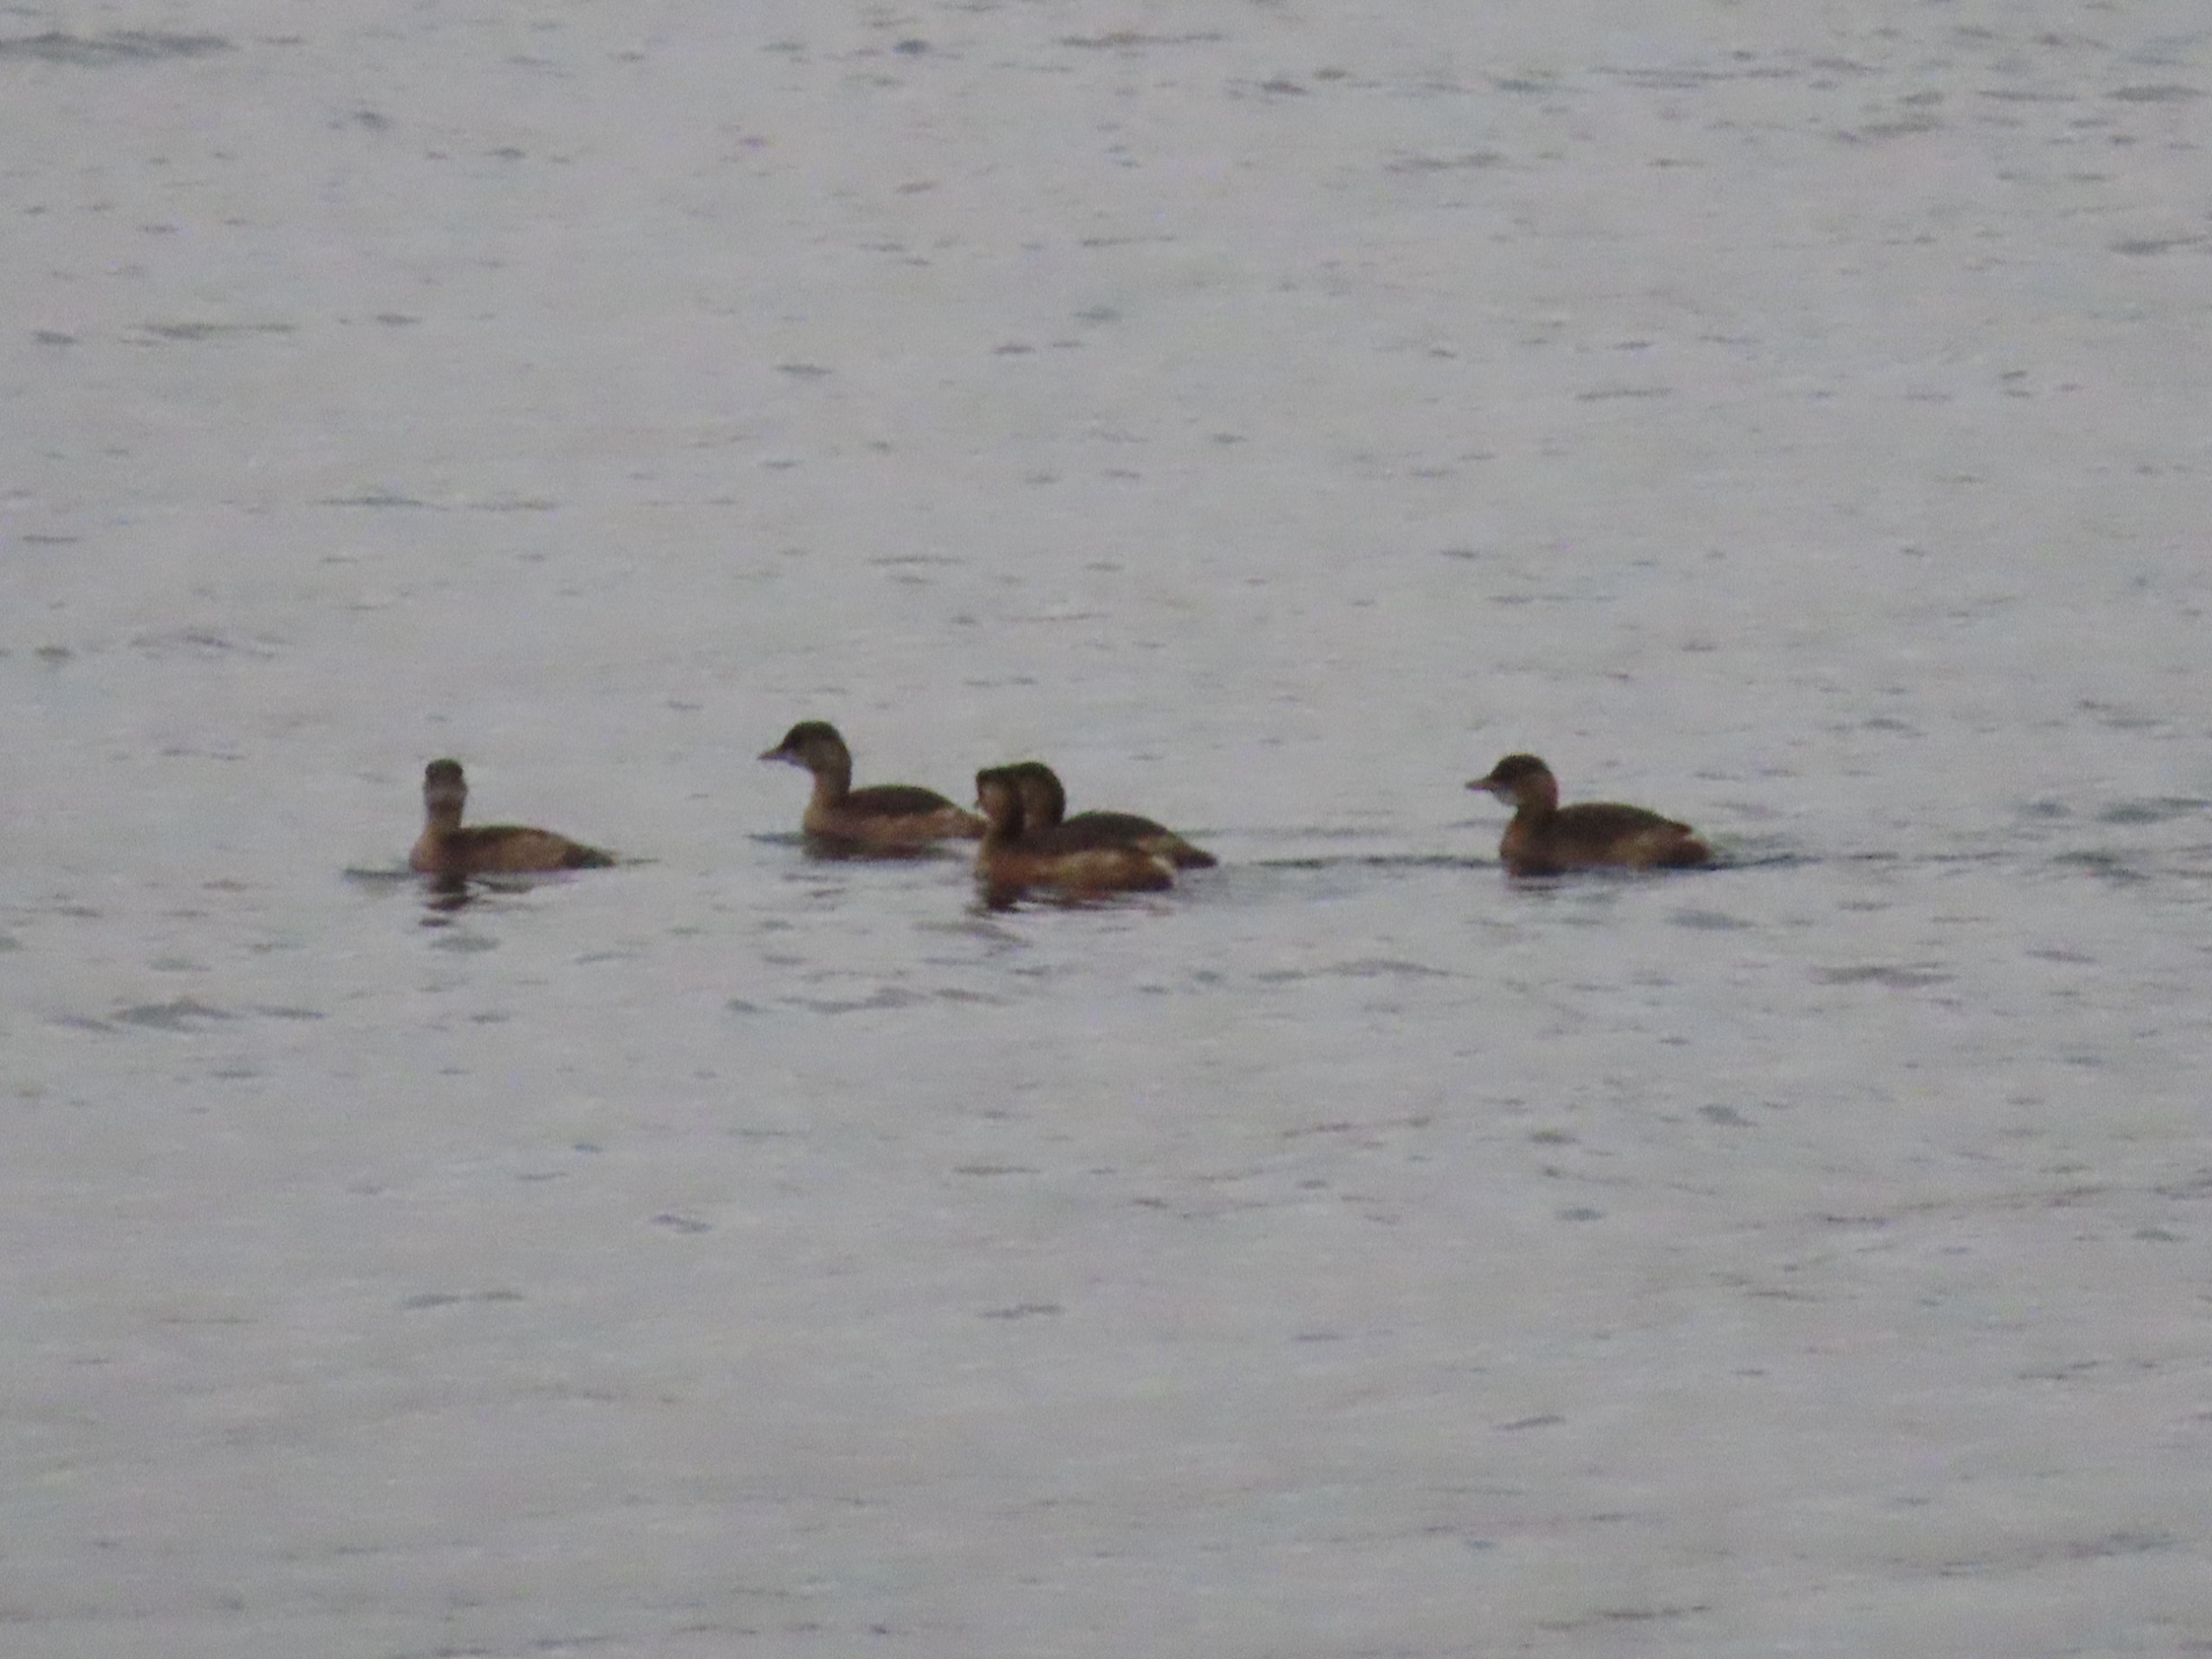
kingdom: Animalia
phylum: Chordata
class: Aves
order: Podicipediformes
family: Podicipedidae
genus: Tachybaptus
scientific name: Tachybaptus ruficollis
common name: Lille lappedykker
